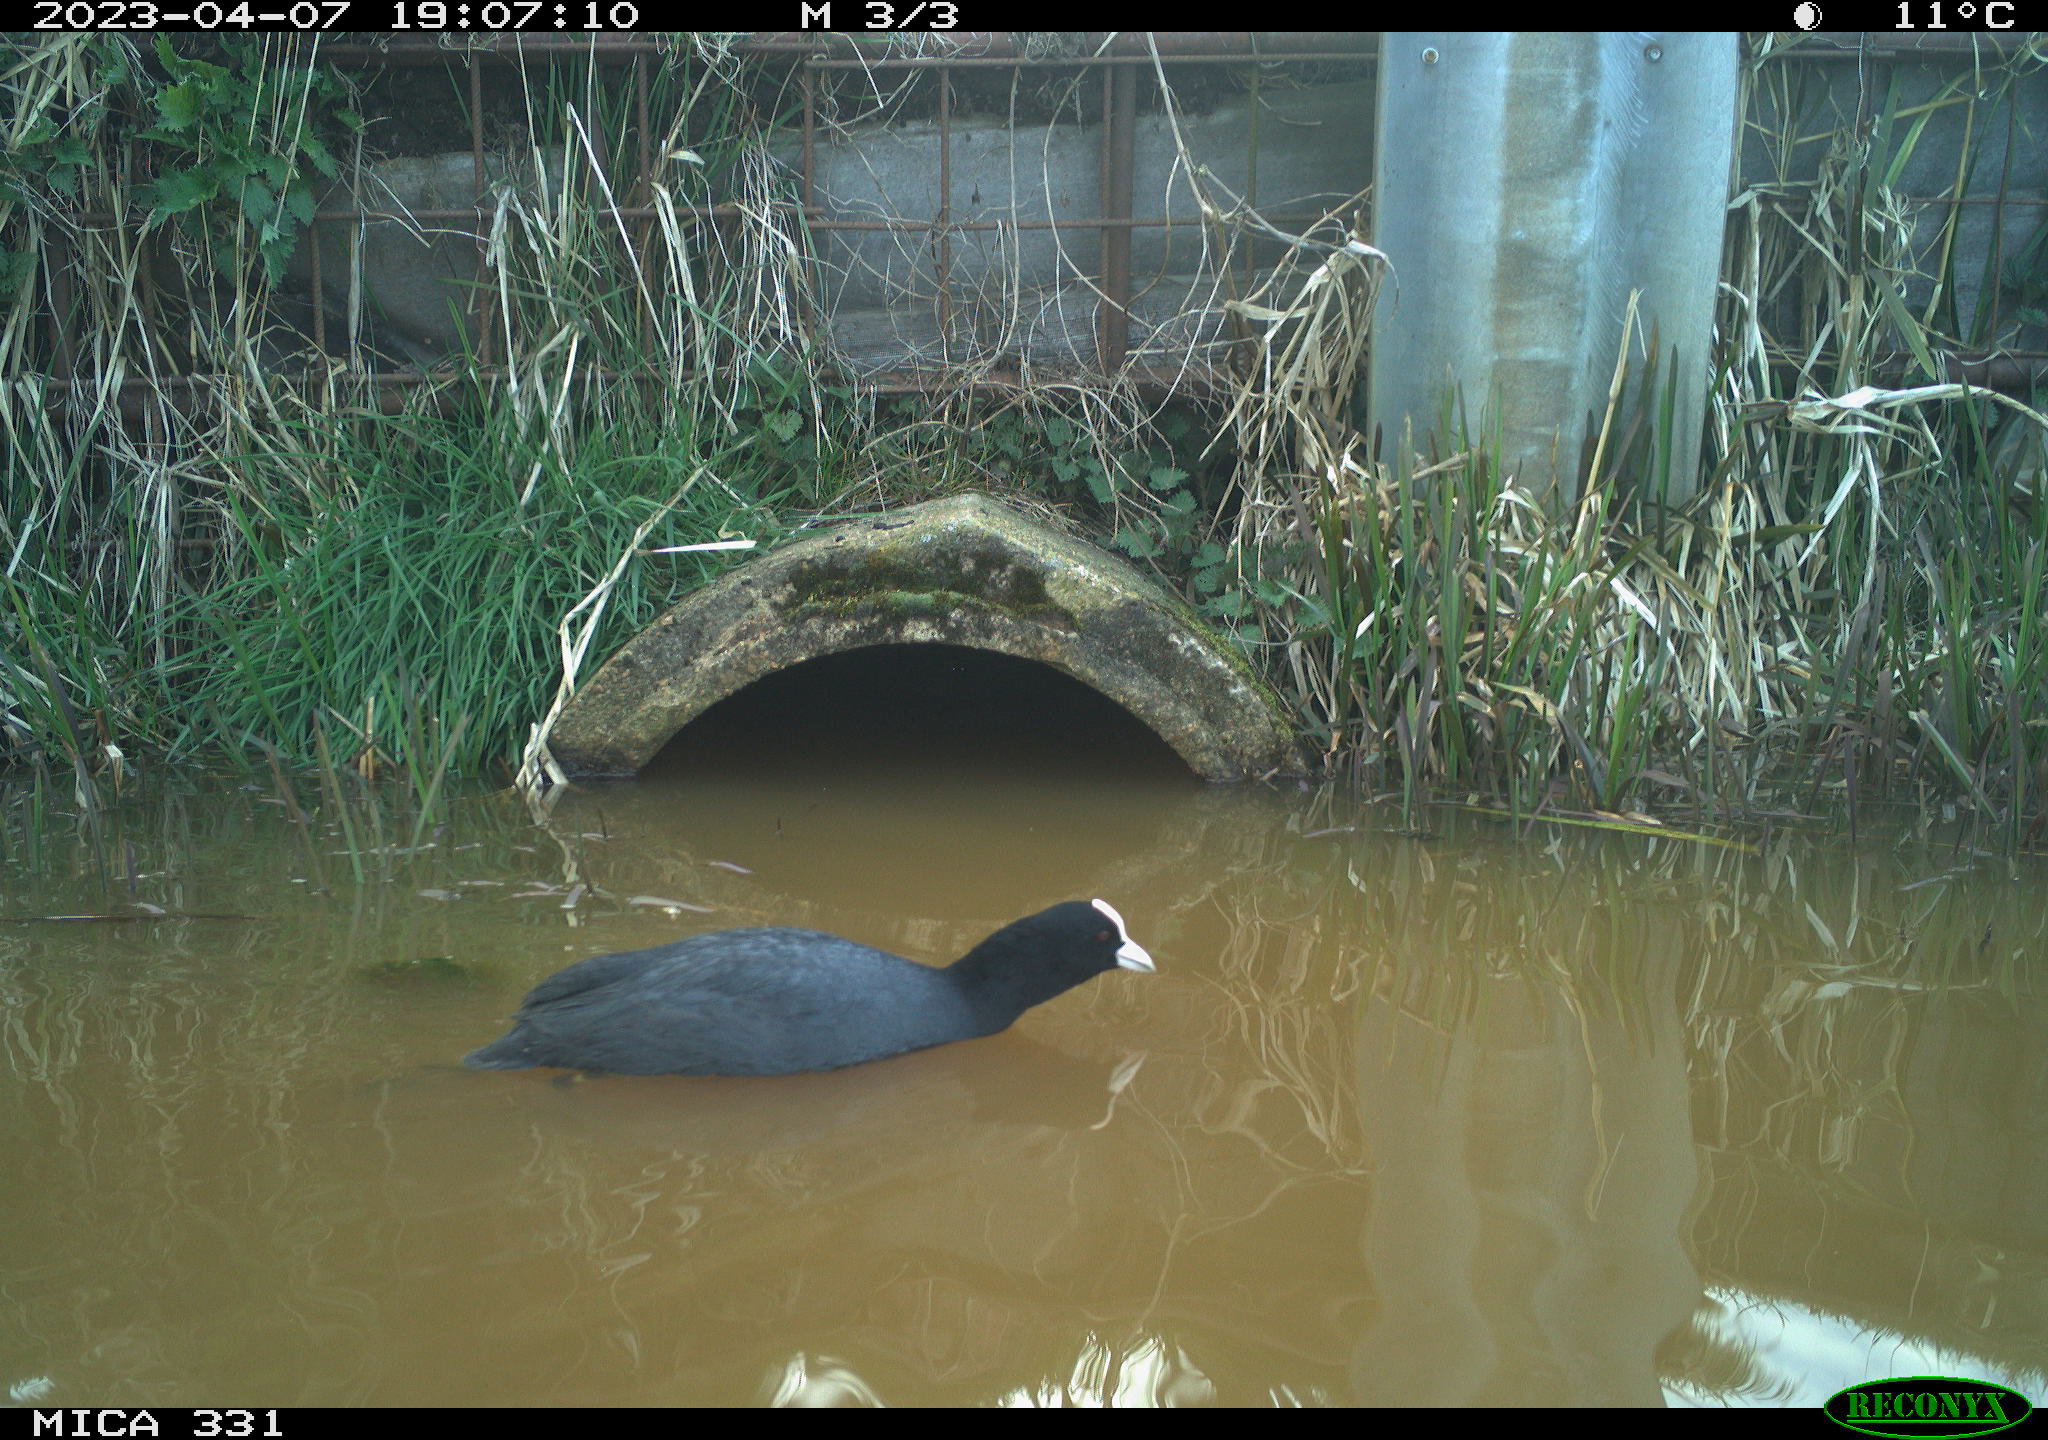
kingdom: Animalia
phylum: Chordata
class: Aves
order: Gruiformes
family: Rallidae
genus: Fulica
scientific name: Fulica atra
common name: Eurasian coot
